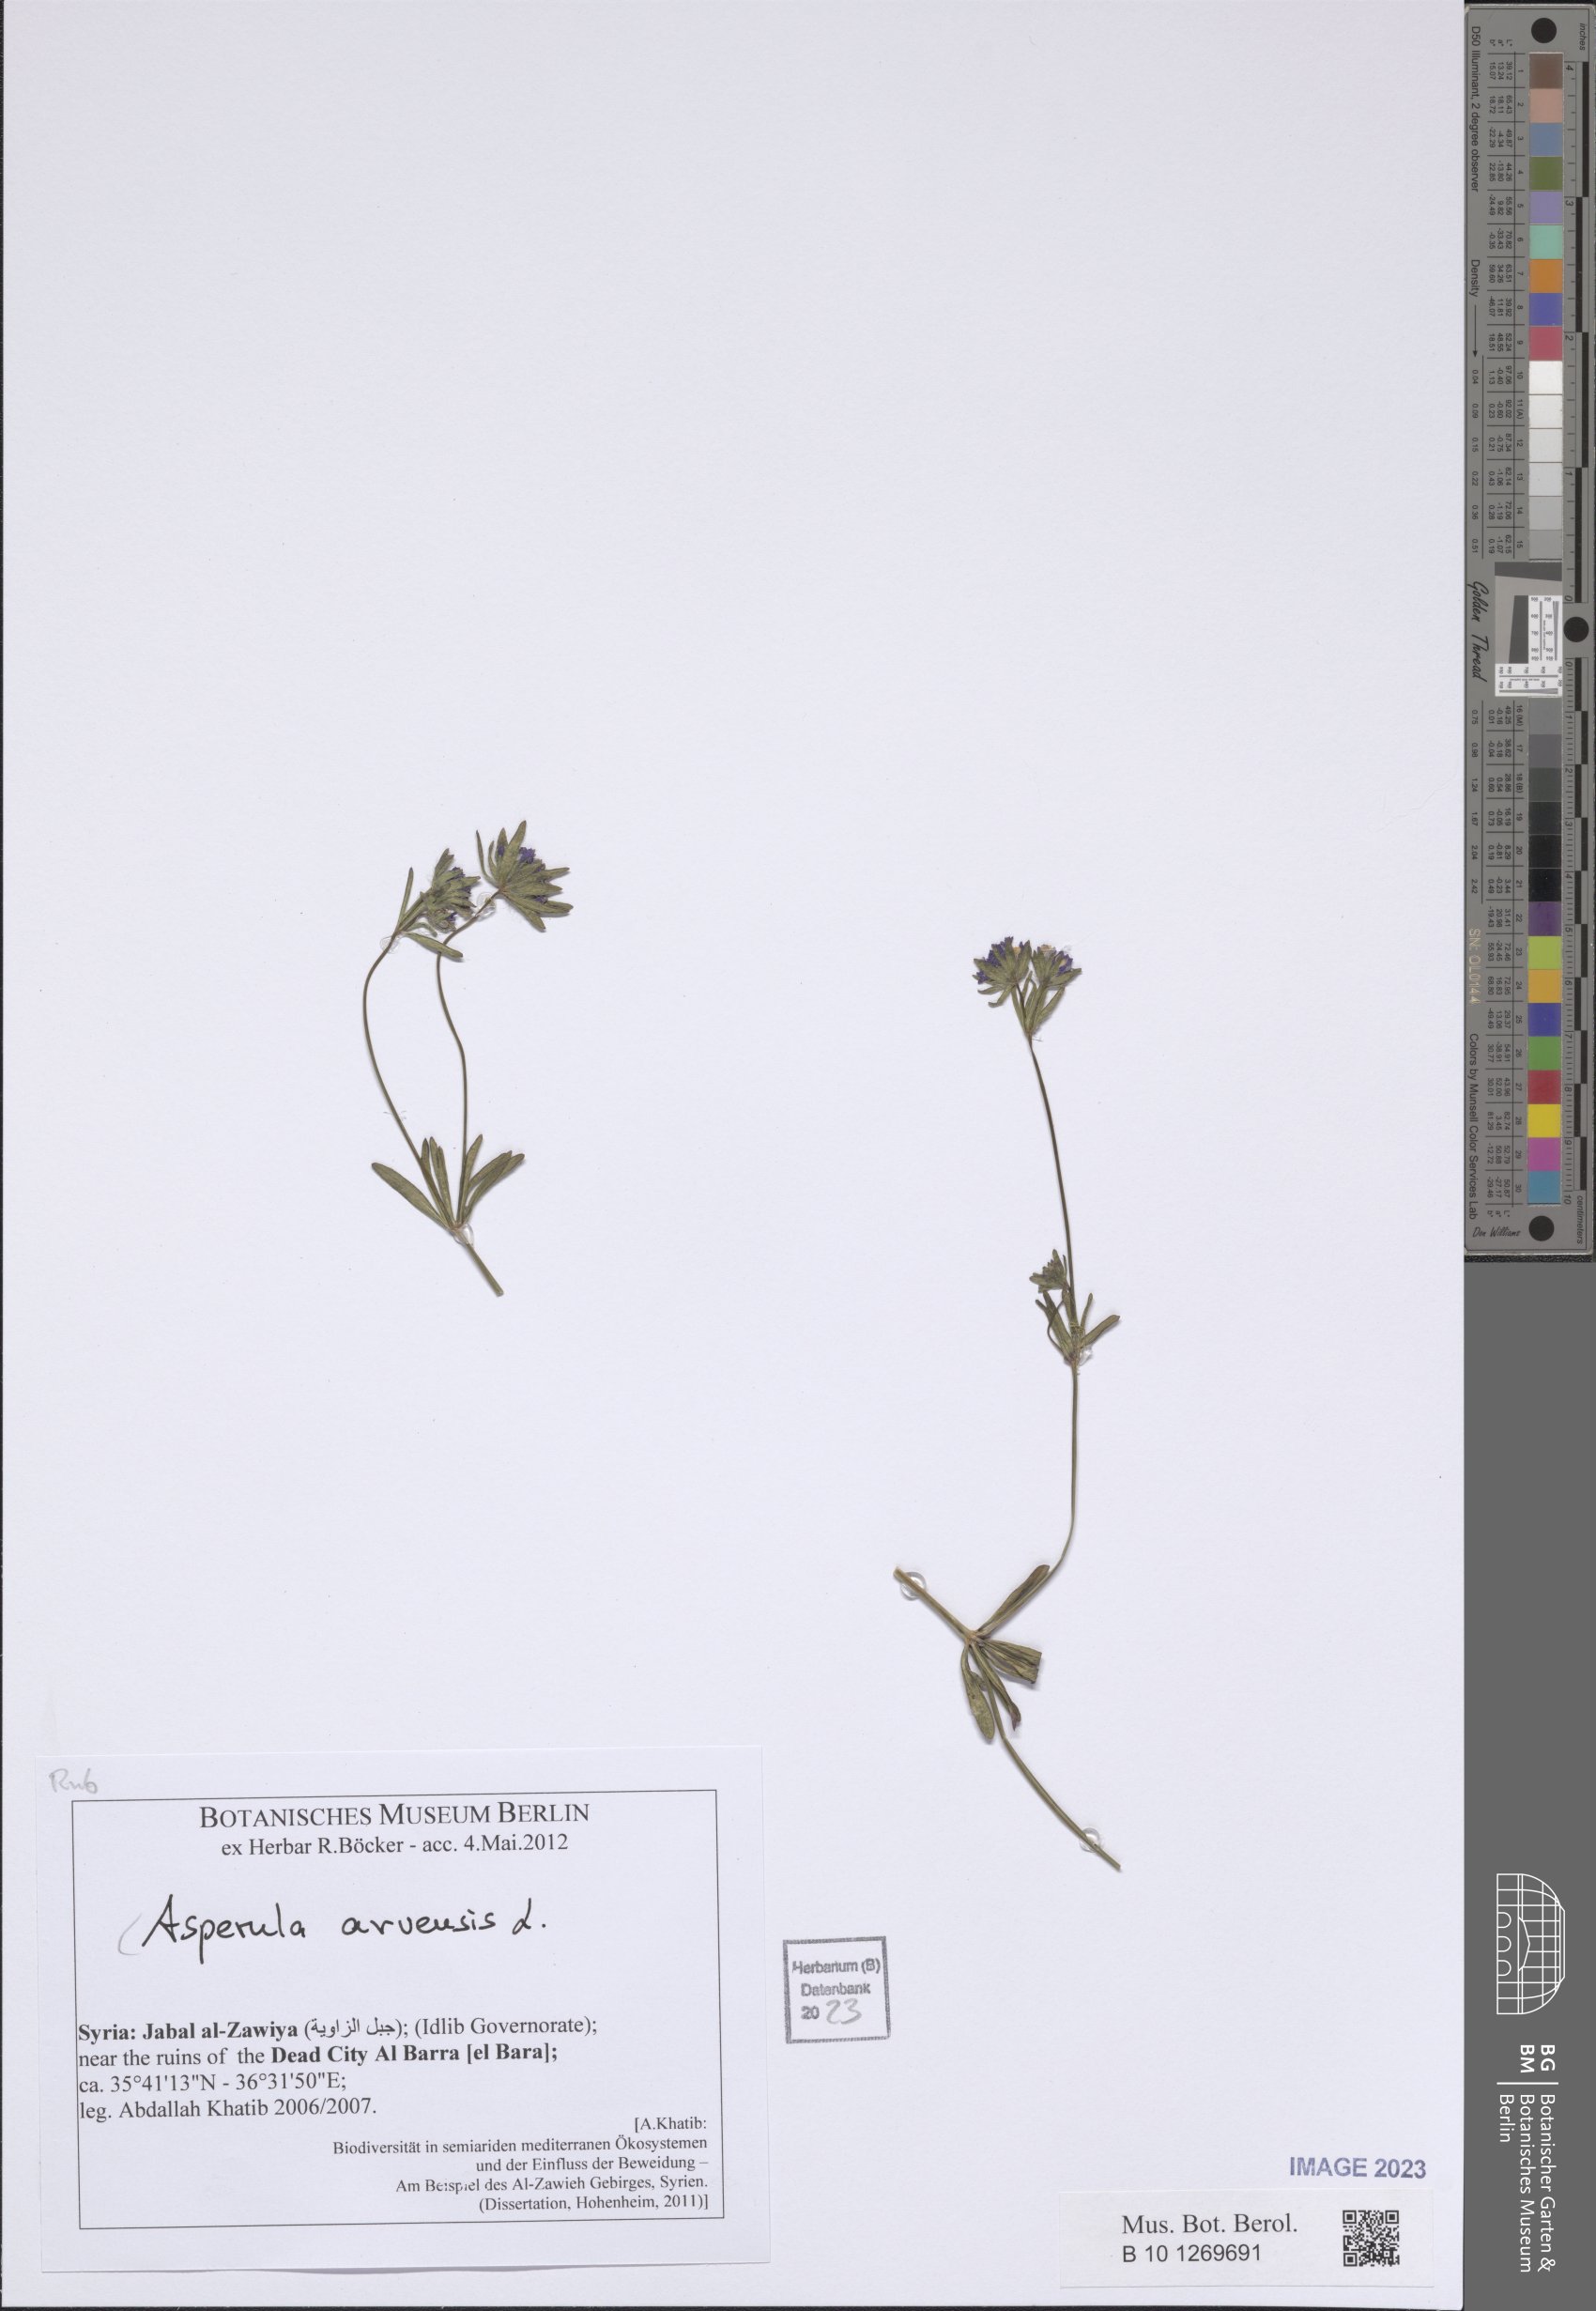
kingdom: Plantae
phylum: Tracheophyta
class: Magnoliopsida
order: Gentianales
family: Rubiaceae
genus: Asperula
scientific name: Asperula arvensis
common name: Blue woodruff
